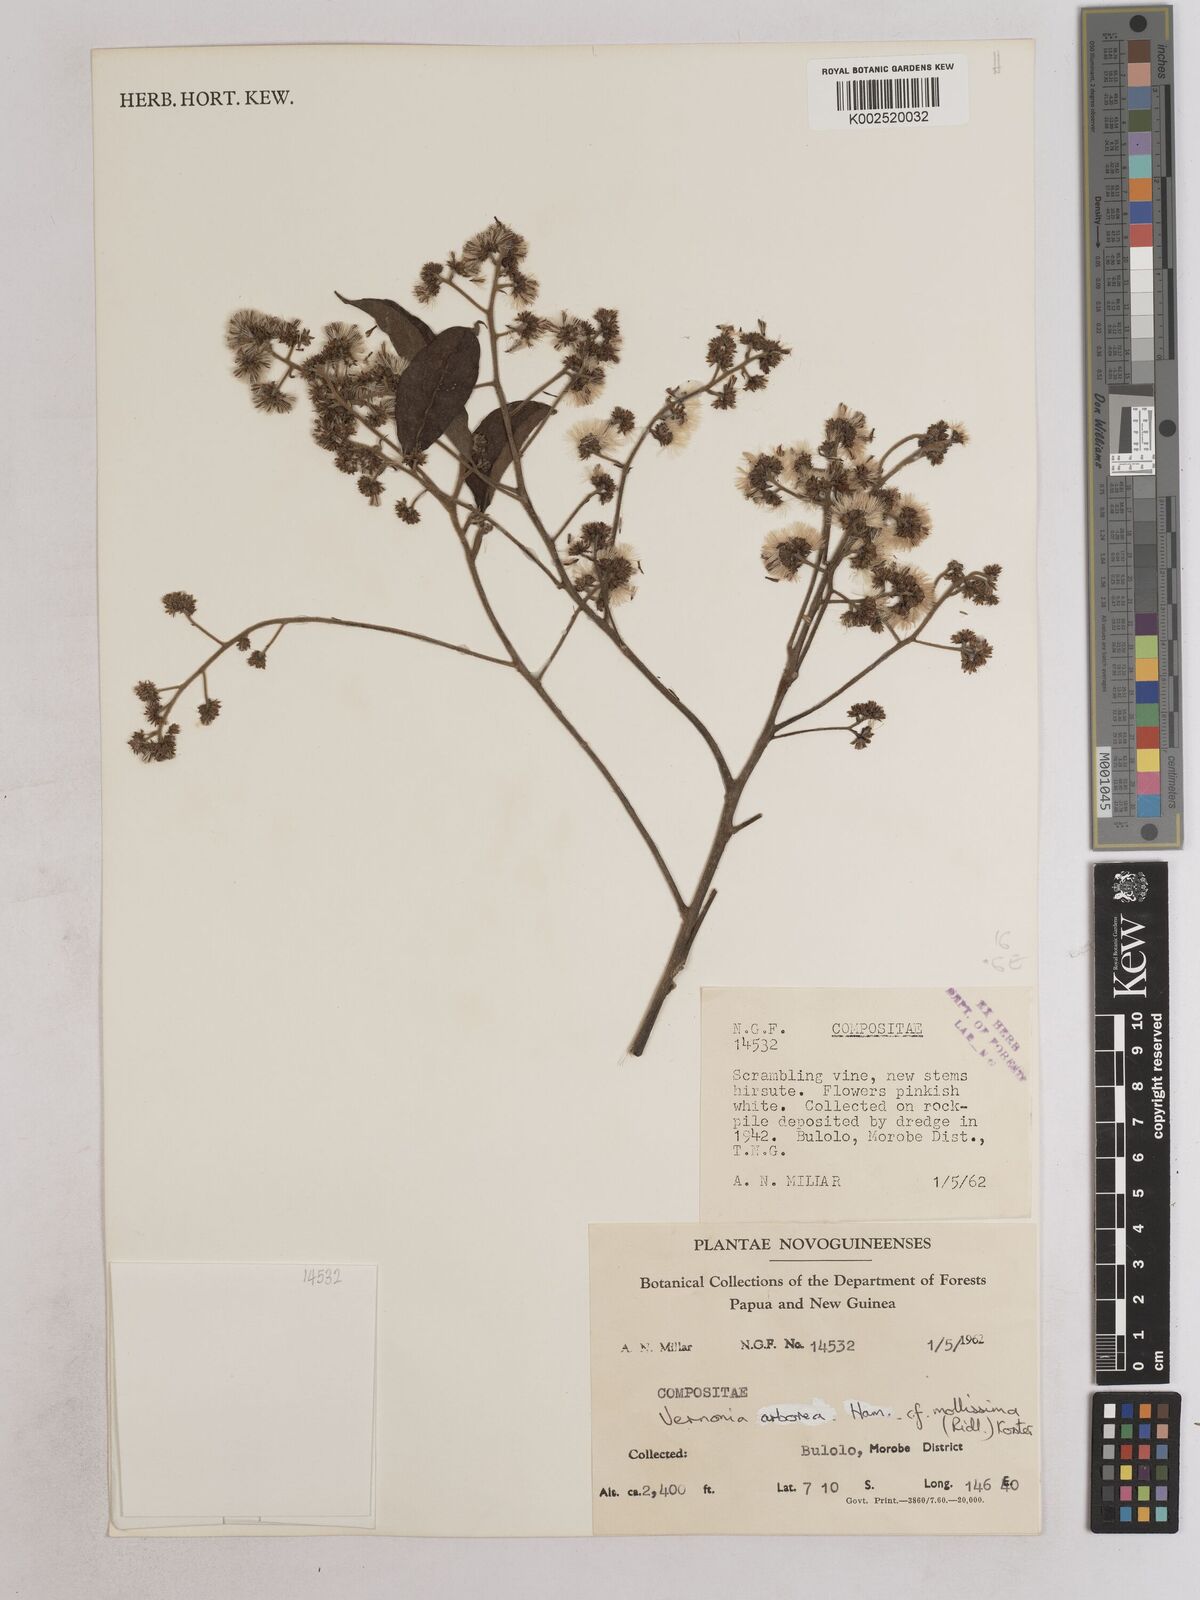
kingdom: Plantae
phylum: Tracheophyta
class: Magnoliopsida
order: Asterales
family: Asteraceae
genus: Strobocalyx
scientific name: Strobocalyx arborea
